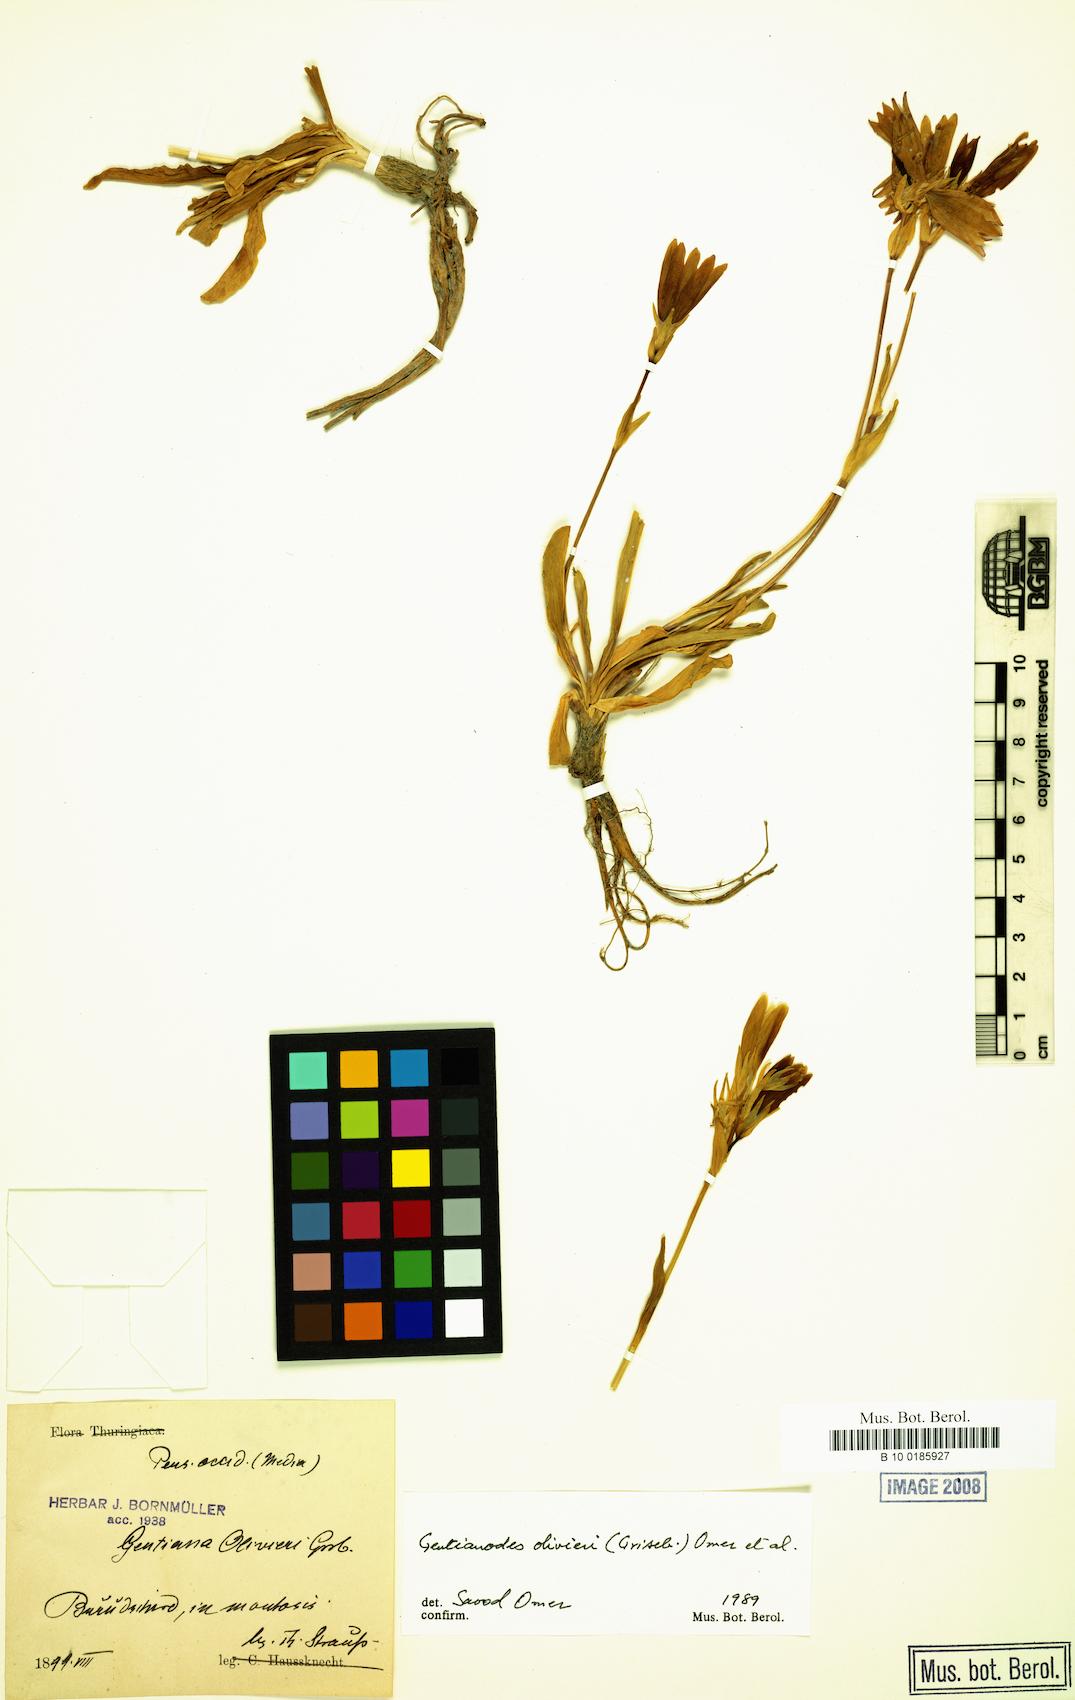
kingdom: Plantae
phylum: Tracheophyta
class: Magnoliopsida
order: Gentianales
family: Gentianaceae
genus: Gentiana
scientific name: Gentiana olivieri
